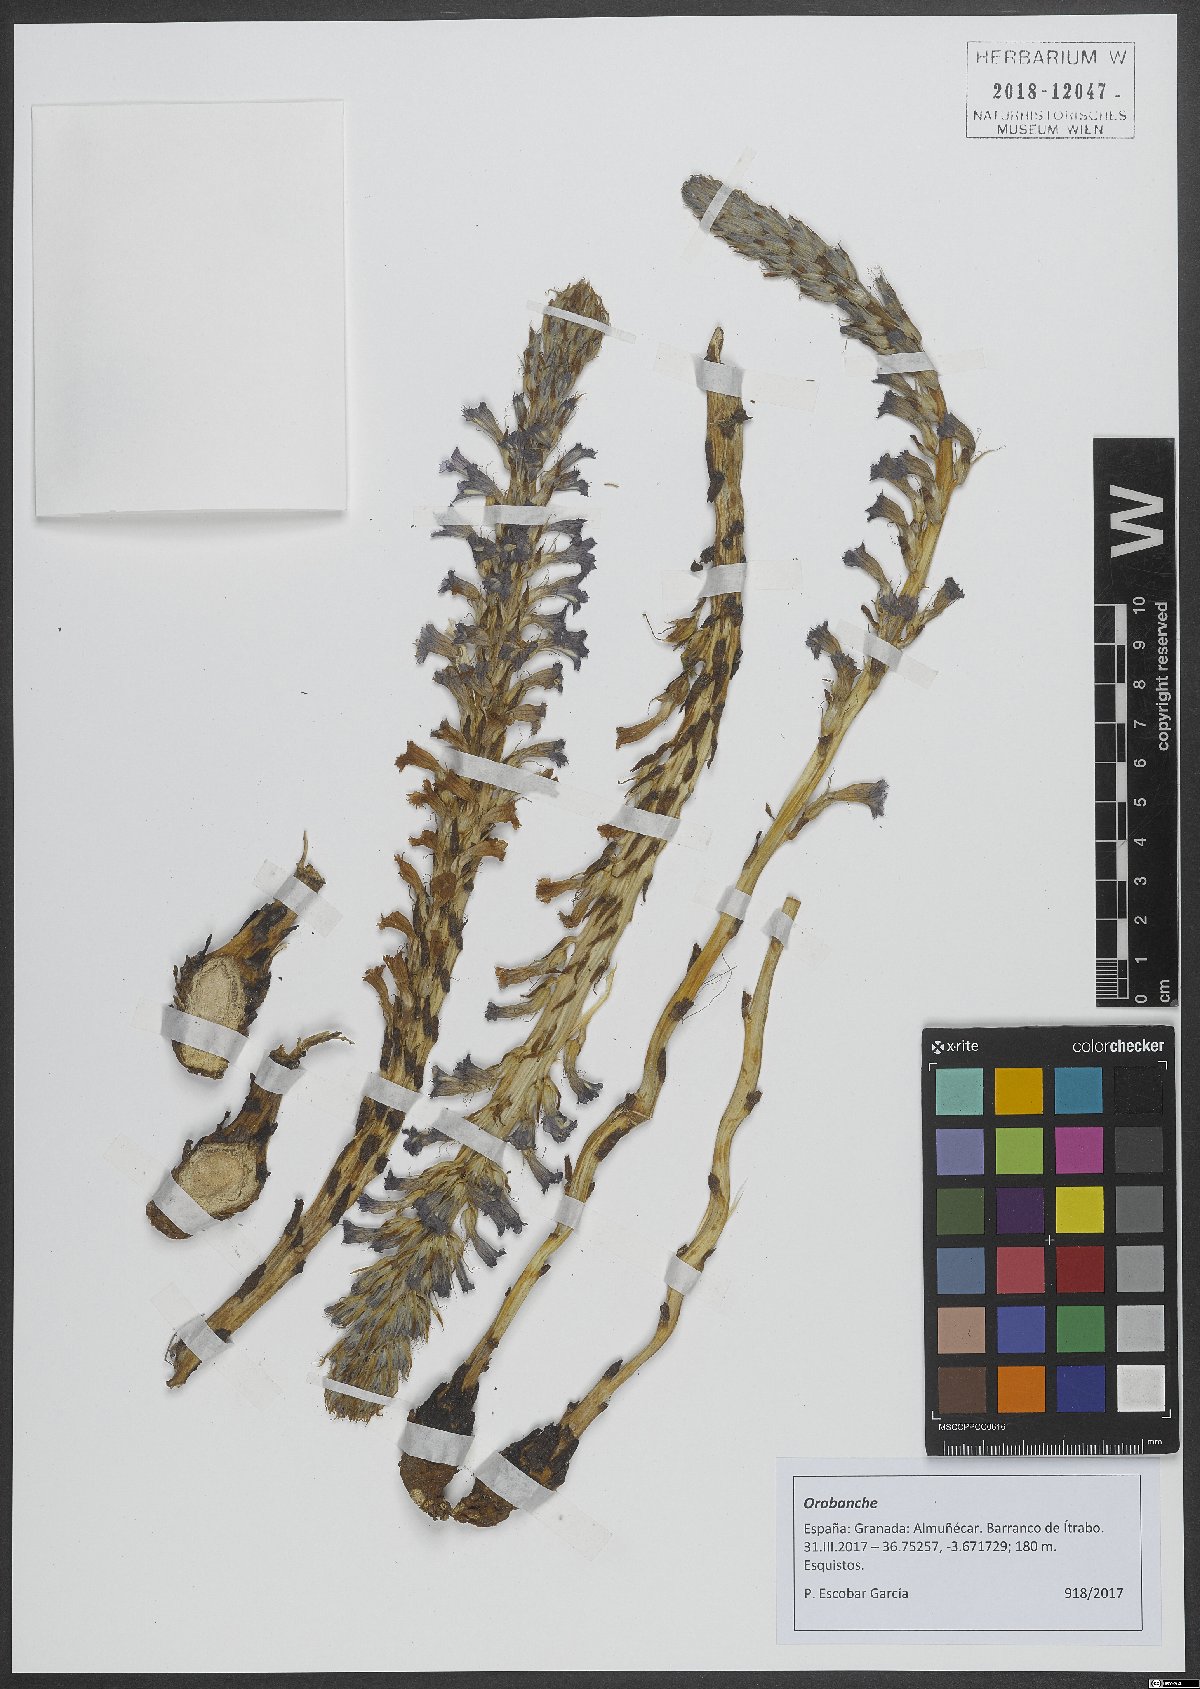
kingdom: Plantae
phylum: Tracheophyta
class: Magnoliopsida
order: Lamiales
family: Orobanchaceae
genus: Orobanche
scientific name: Orobanche
